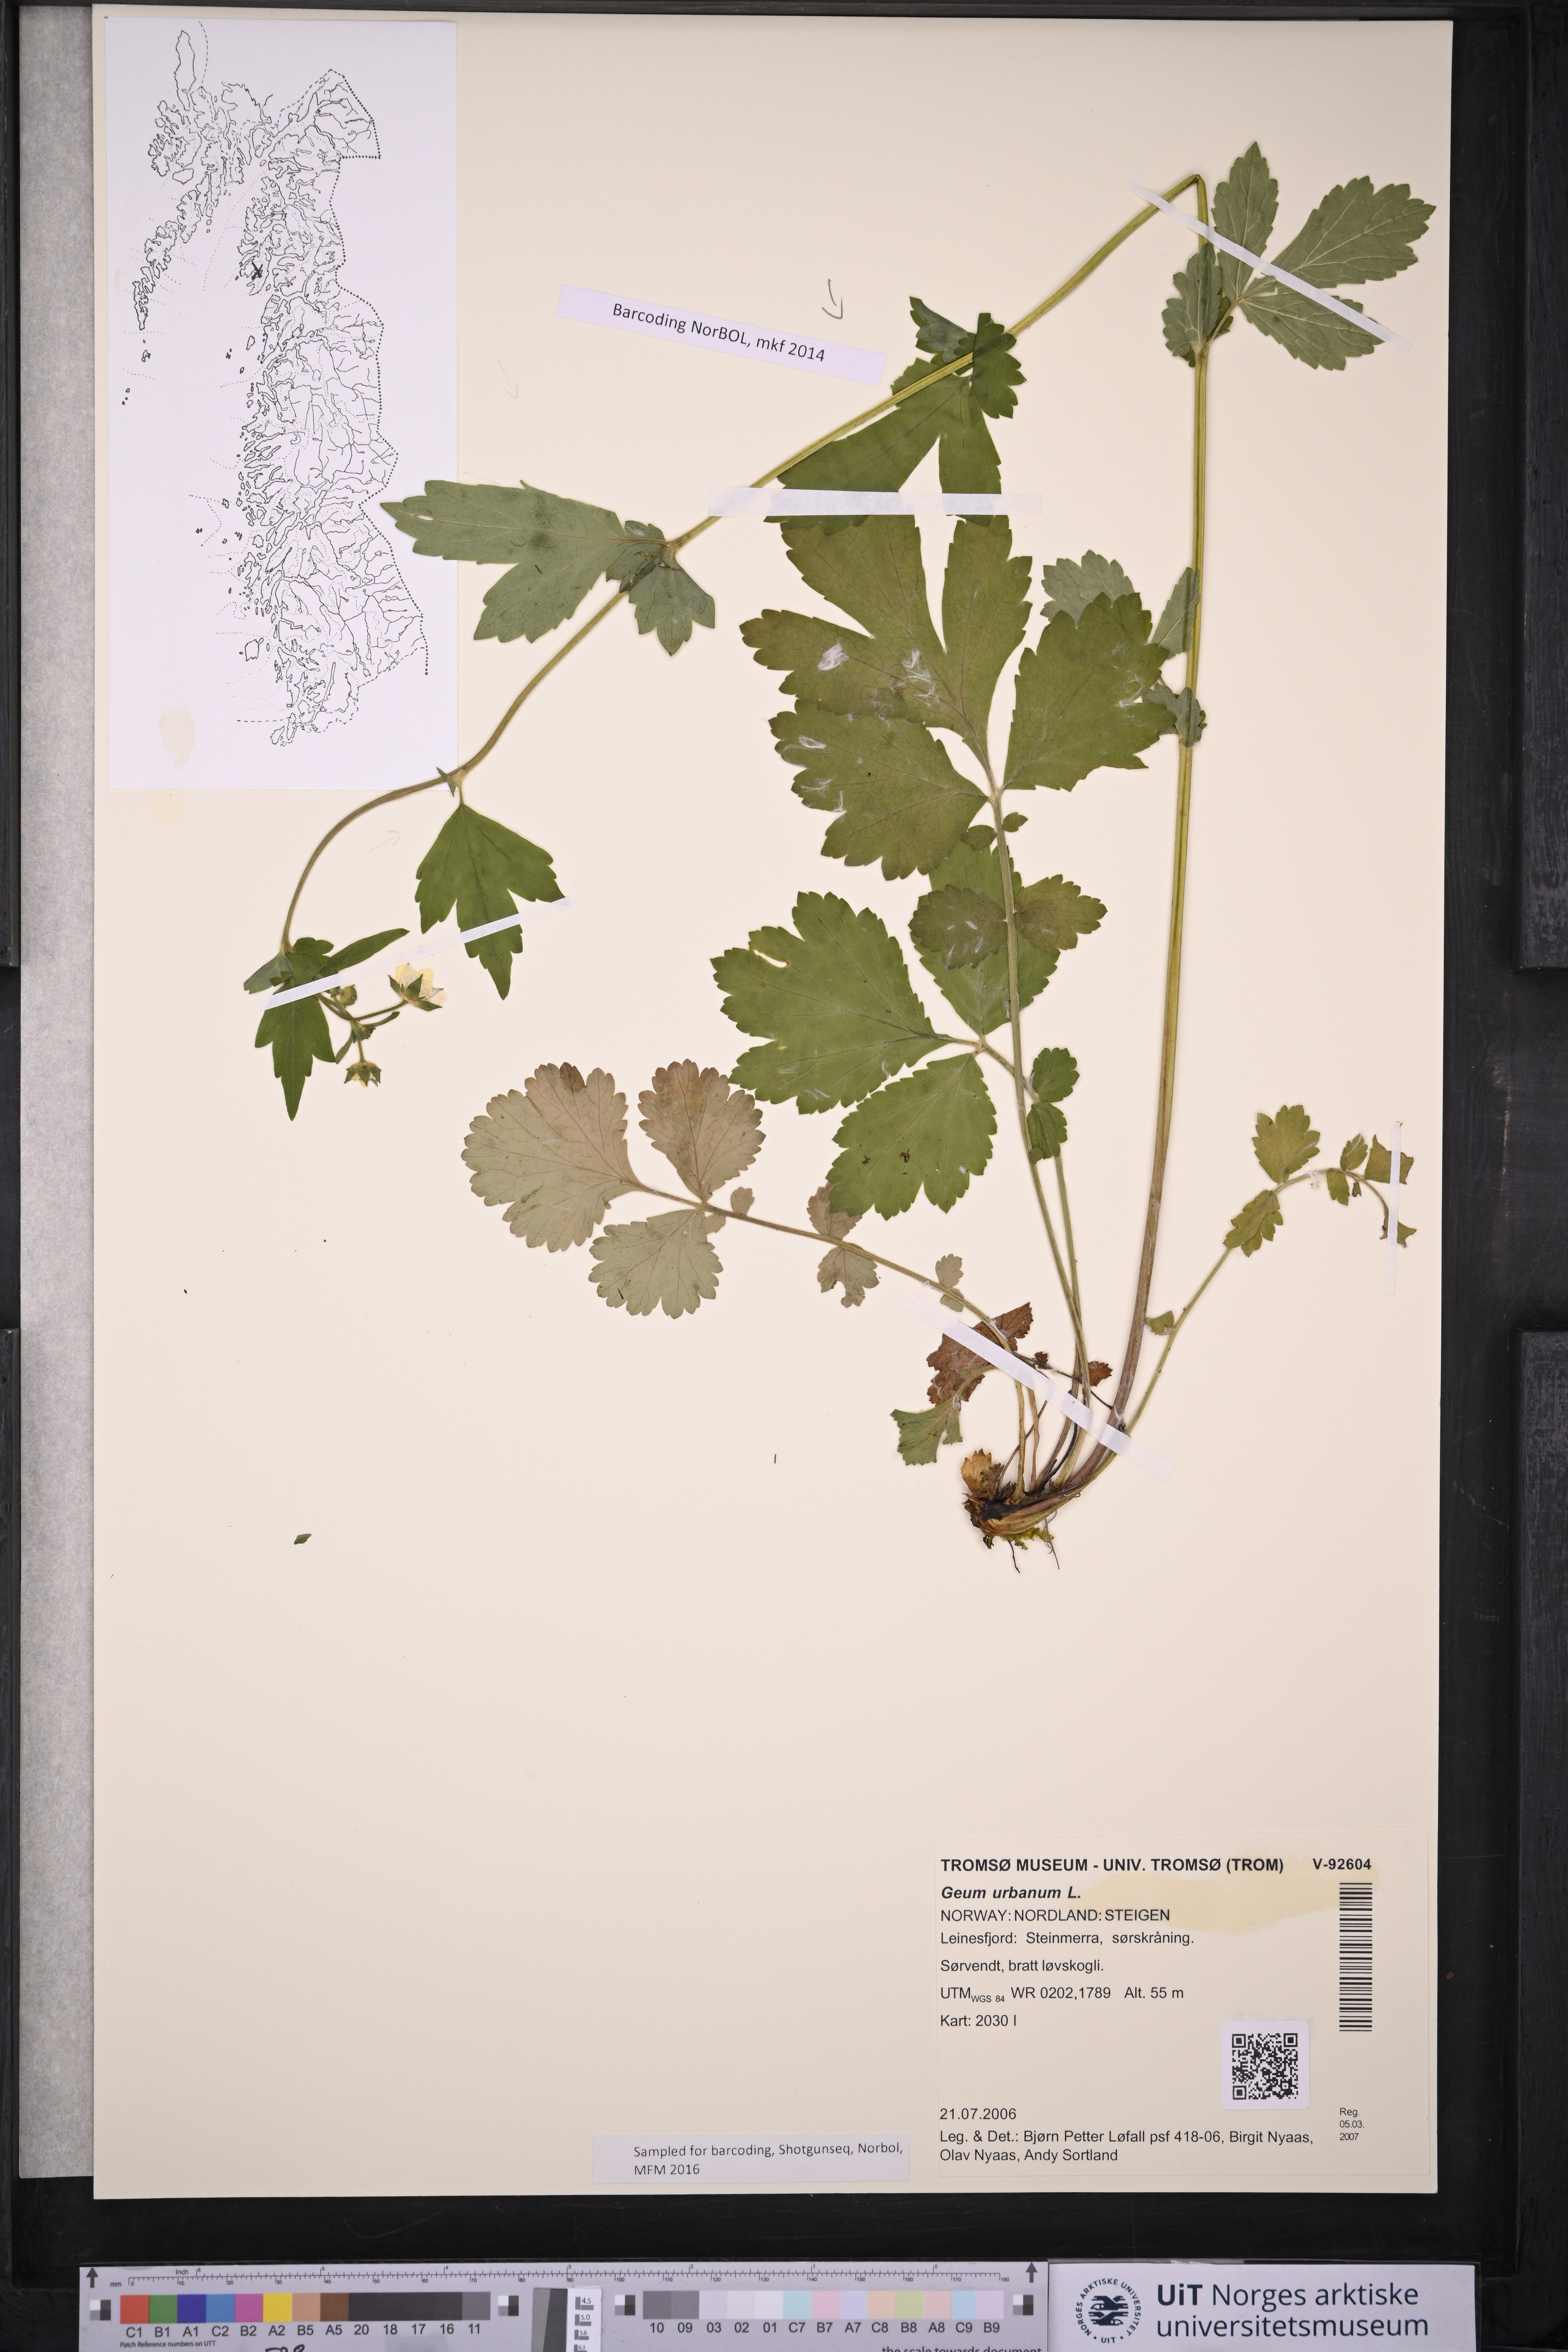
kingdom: Plantae
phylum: Tracheophyta
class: Magnoliopsida
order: Rosales
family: Rosaceae
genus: Geum
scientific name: Geum urbanum
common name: Wood avens
